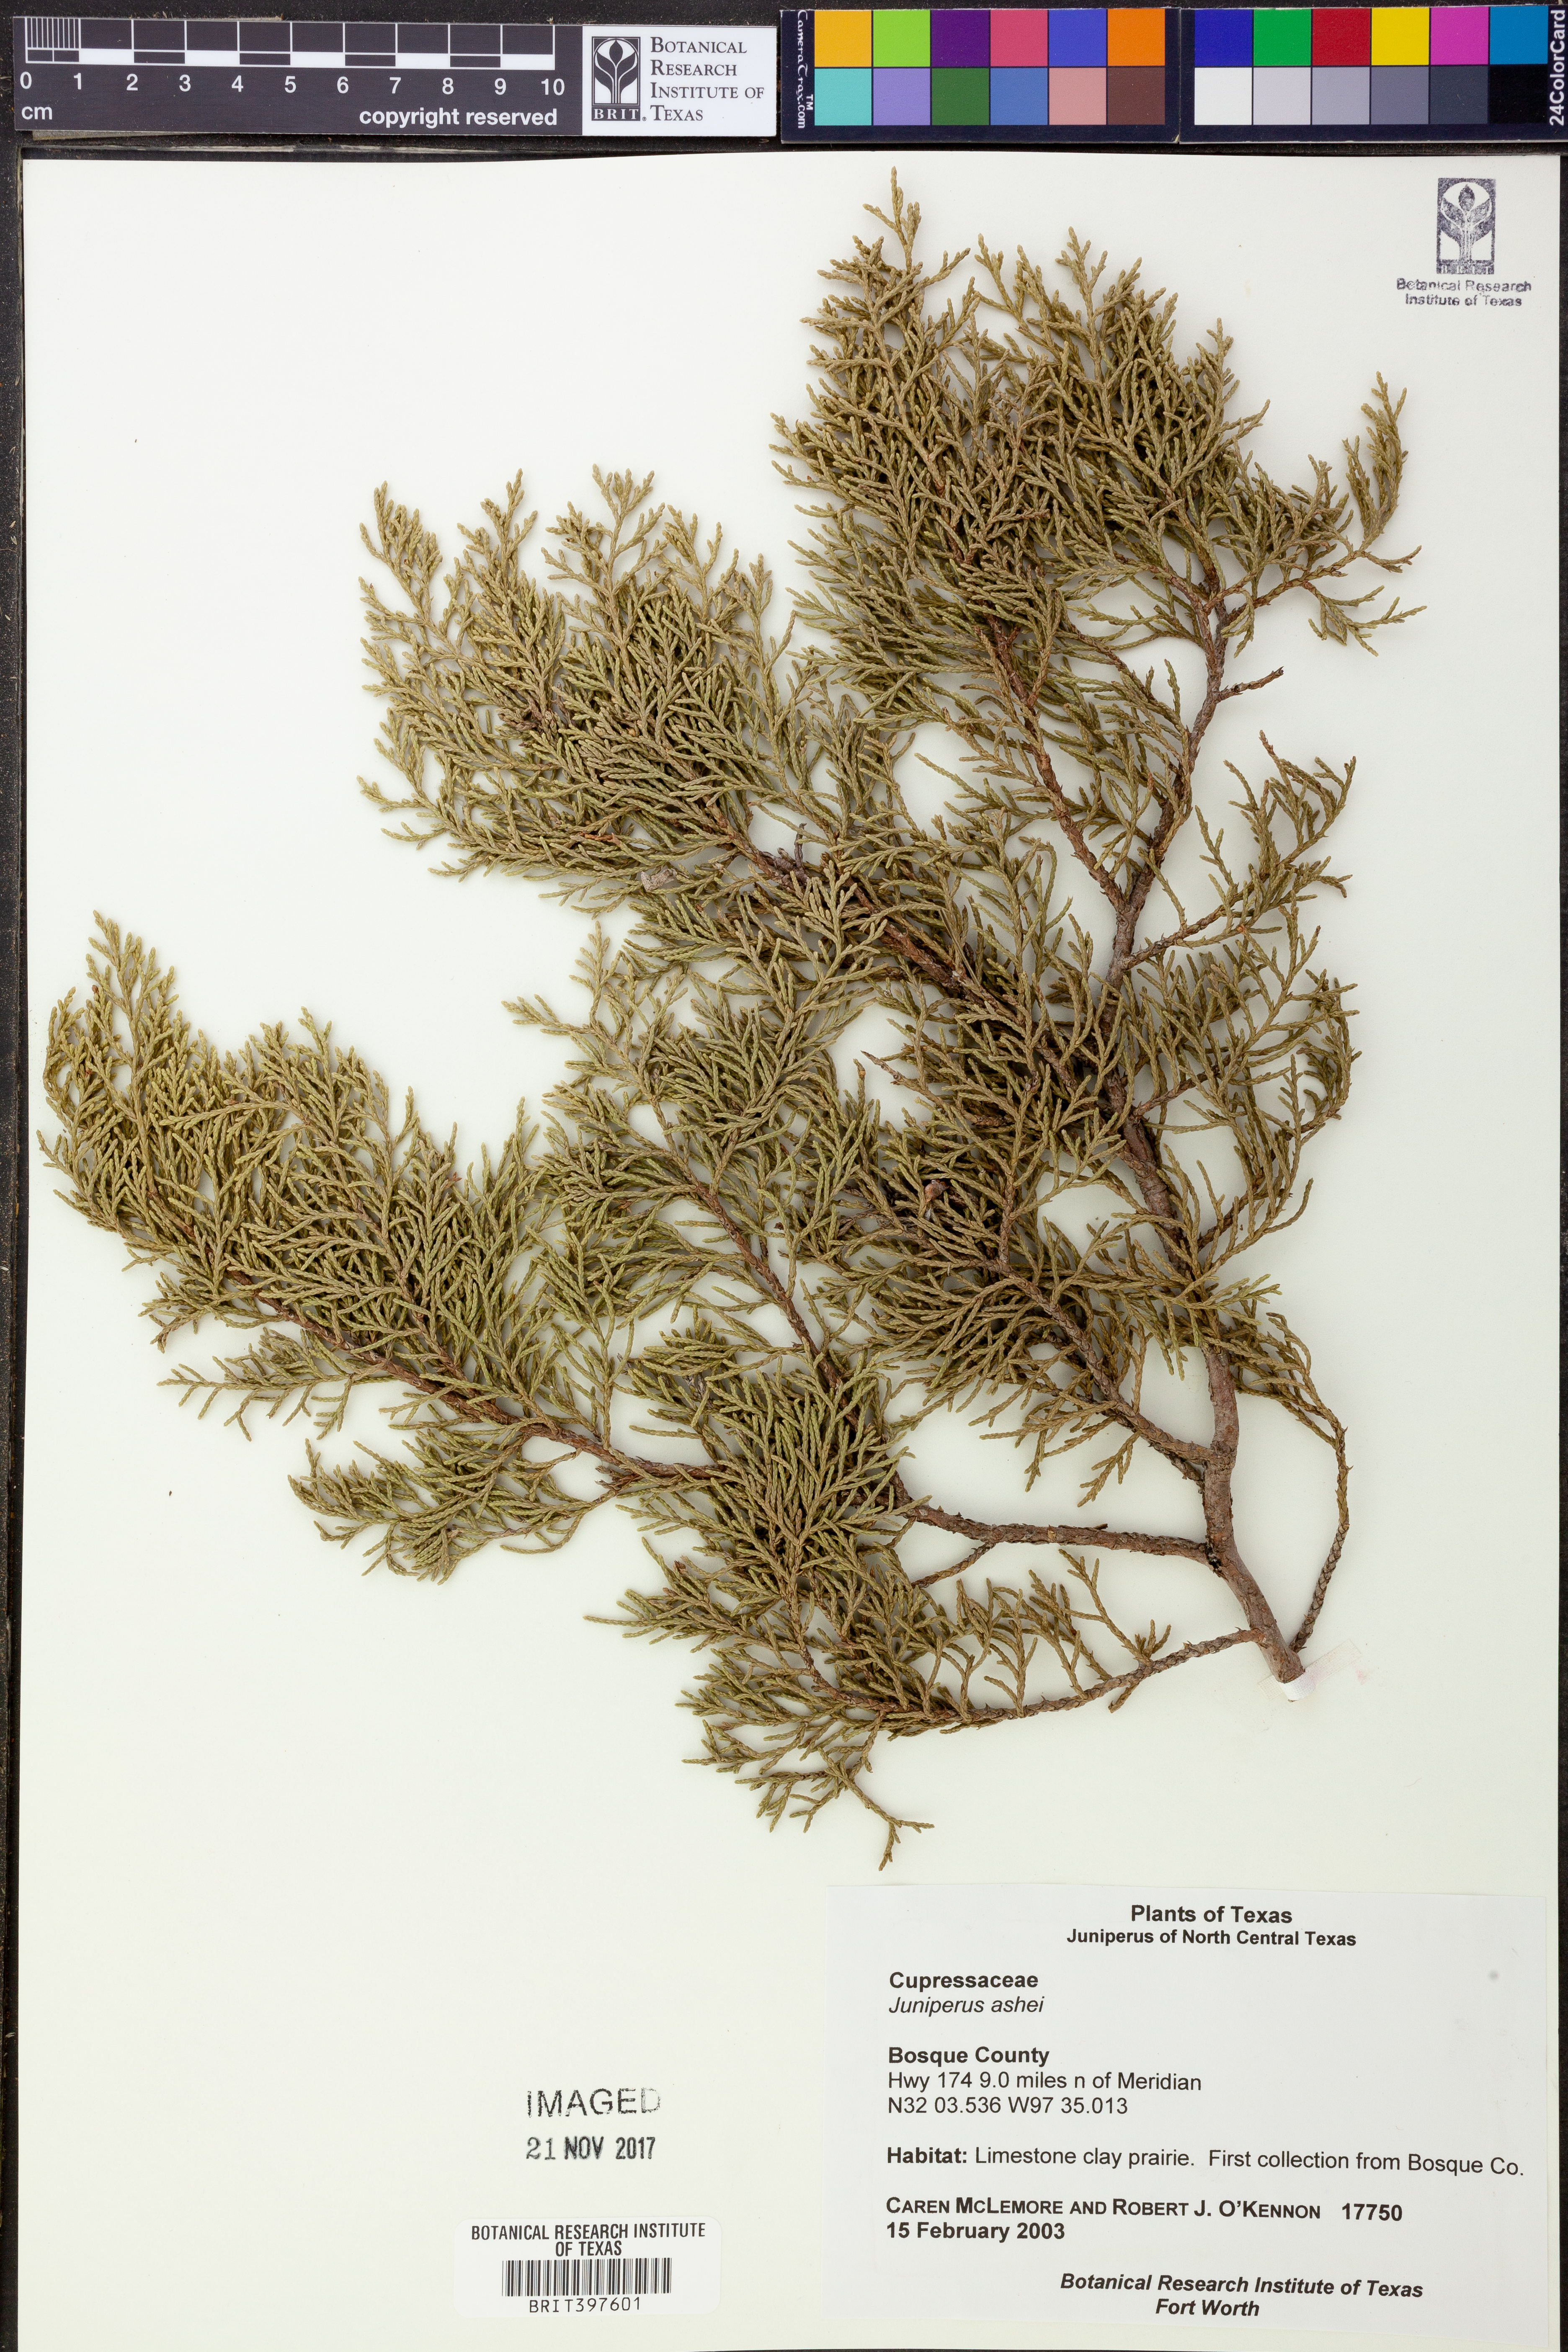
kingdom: Plantae
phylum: Tracheophyta
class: Pinopsida
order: Pinales
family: Cupressaceae
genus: Juniperus
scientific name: Juniperus ashei
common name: Mexican juniper
